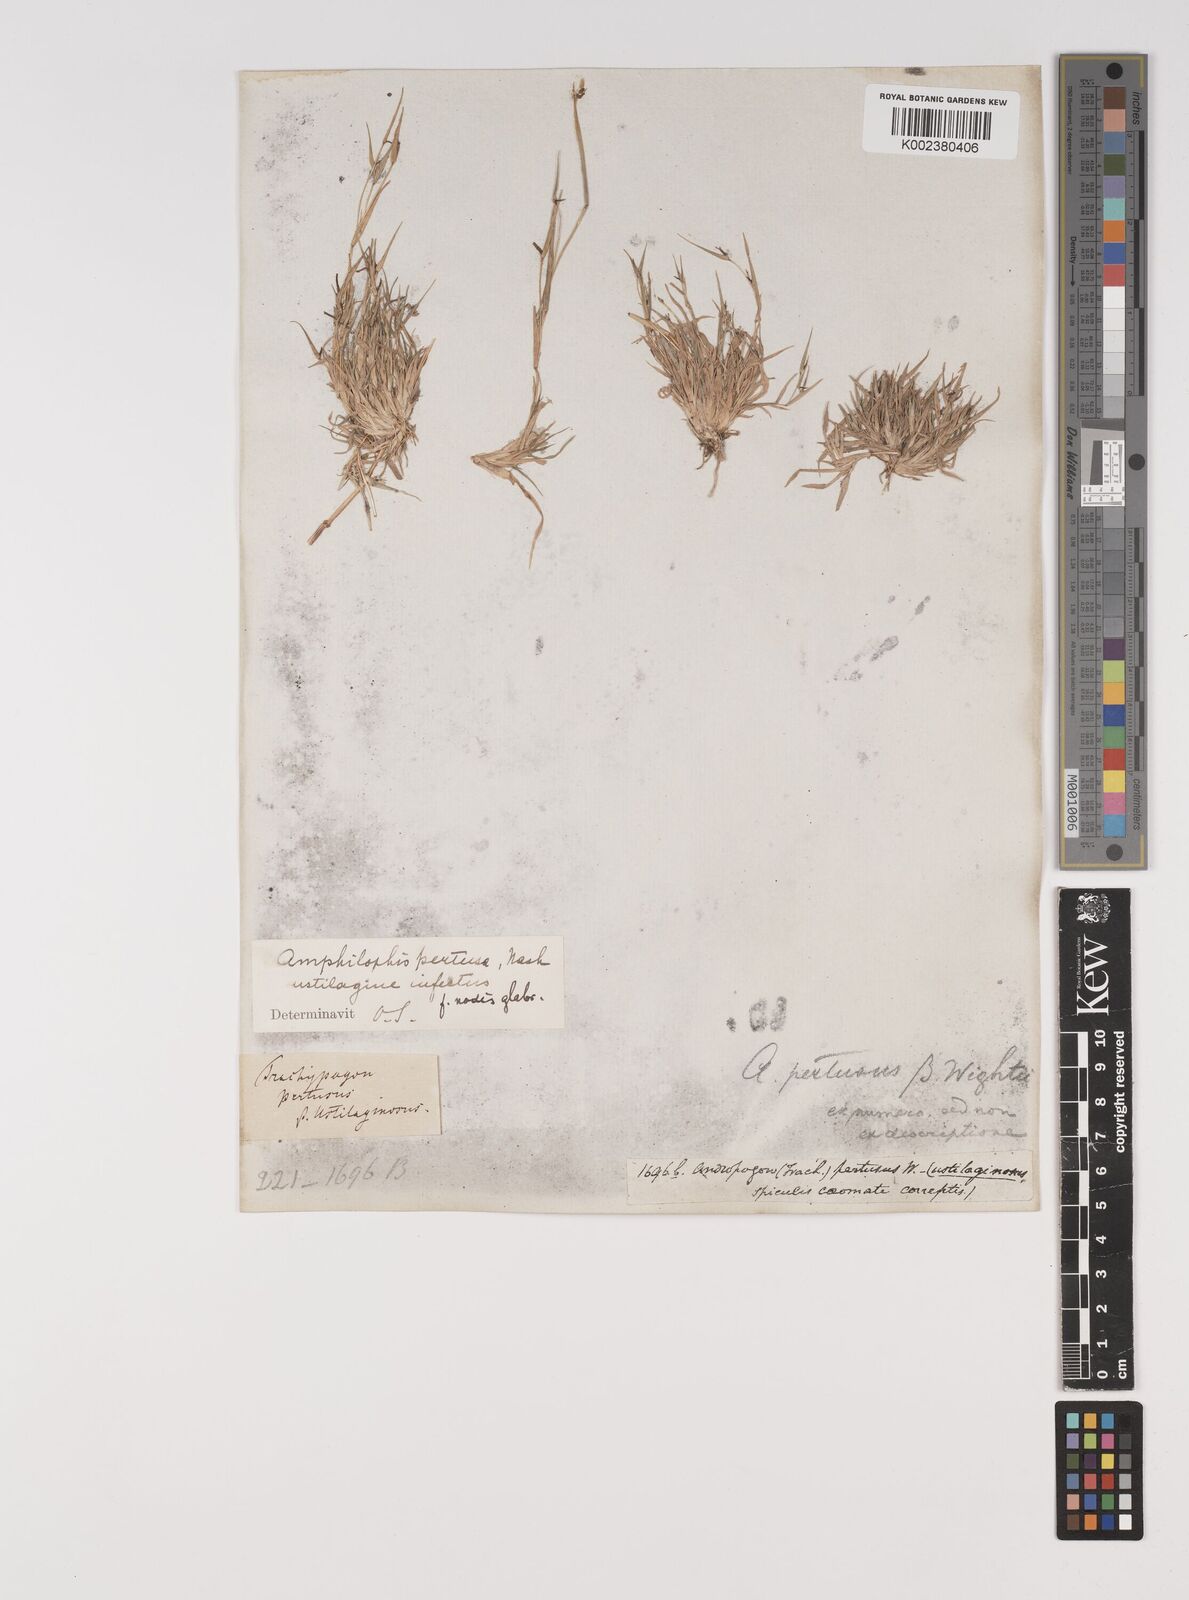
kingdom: Plantae
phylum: Tracheophyta
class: Liliopsida
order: Poales
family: Poaceae
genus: Bothriochloa
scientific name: Bothriochloa pertusa
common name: Pitted beardgrass
